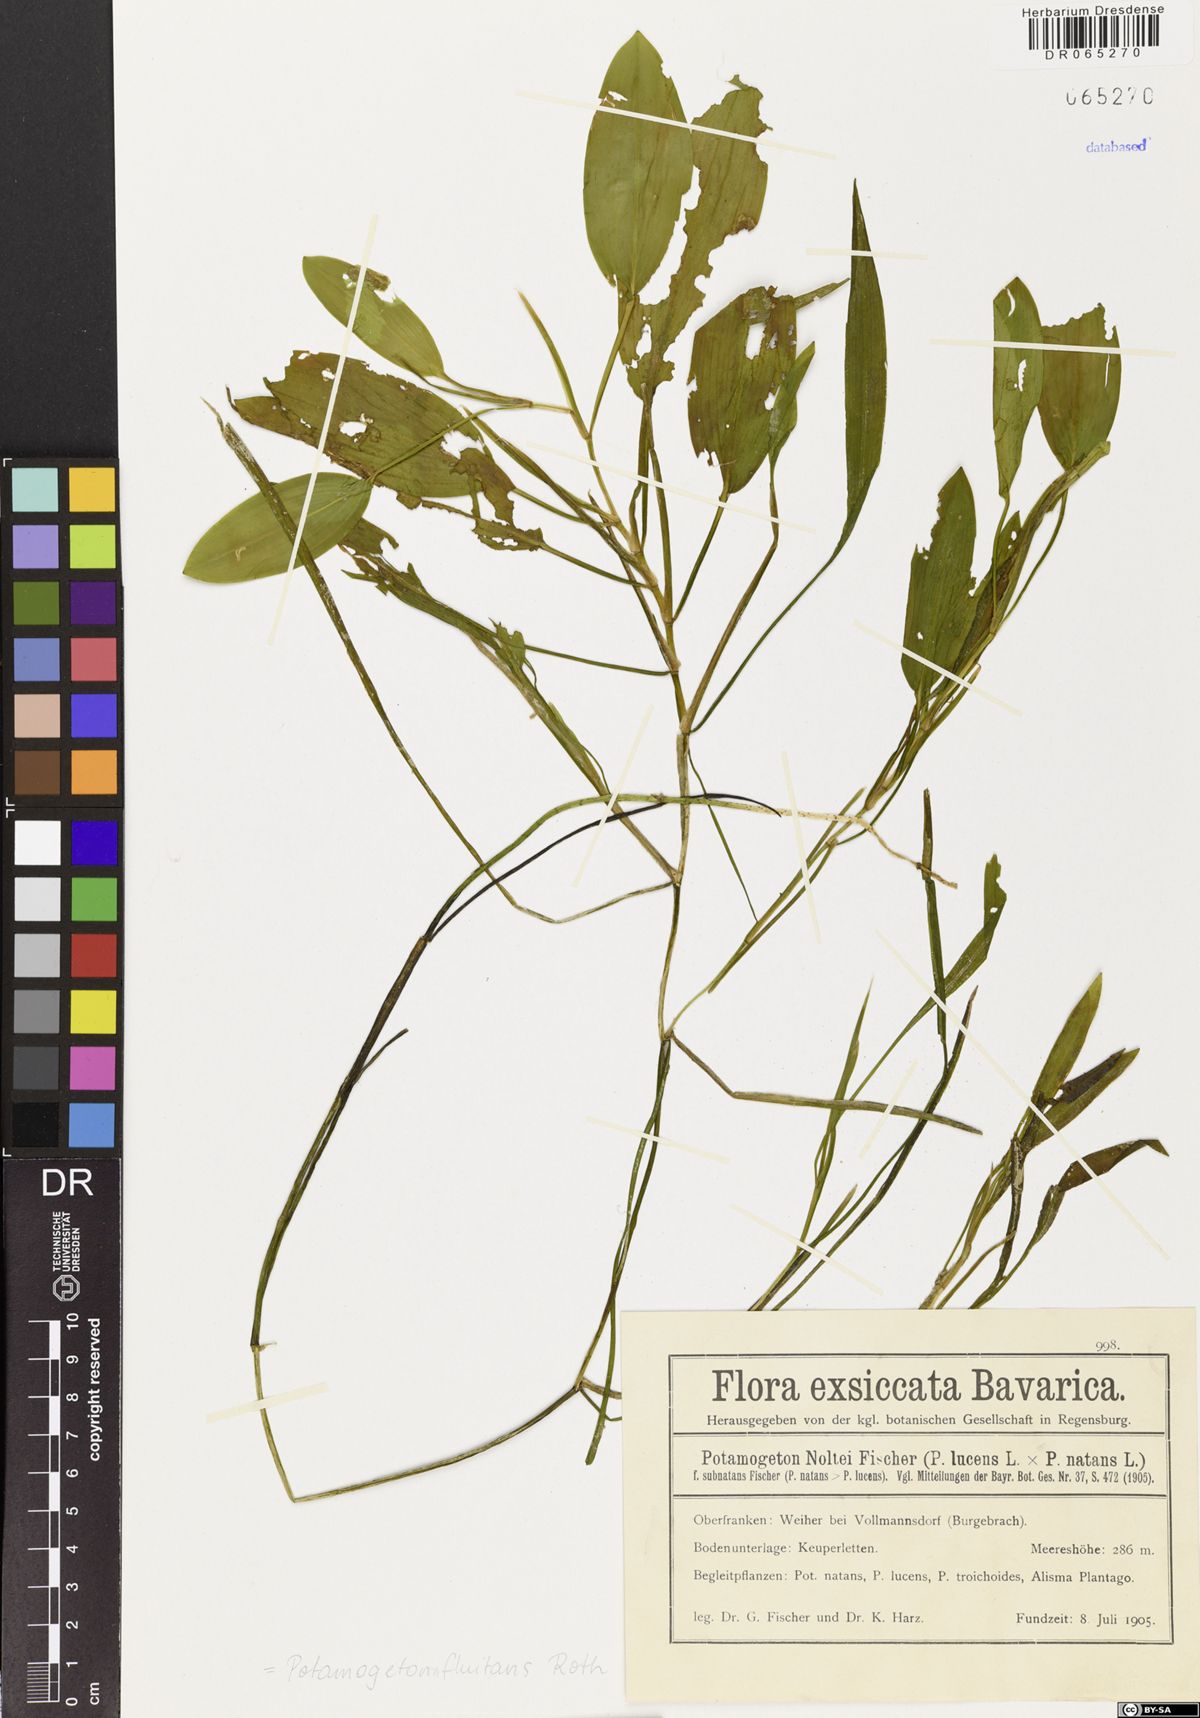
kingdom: Plantae
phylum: Tracheophyta
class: Liliopsida
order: Alismatales
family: Potamogetonaceae
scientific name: Potamogetonaceae
